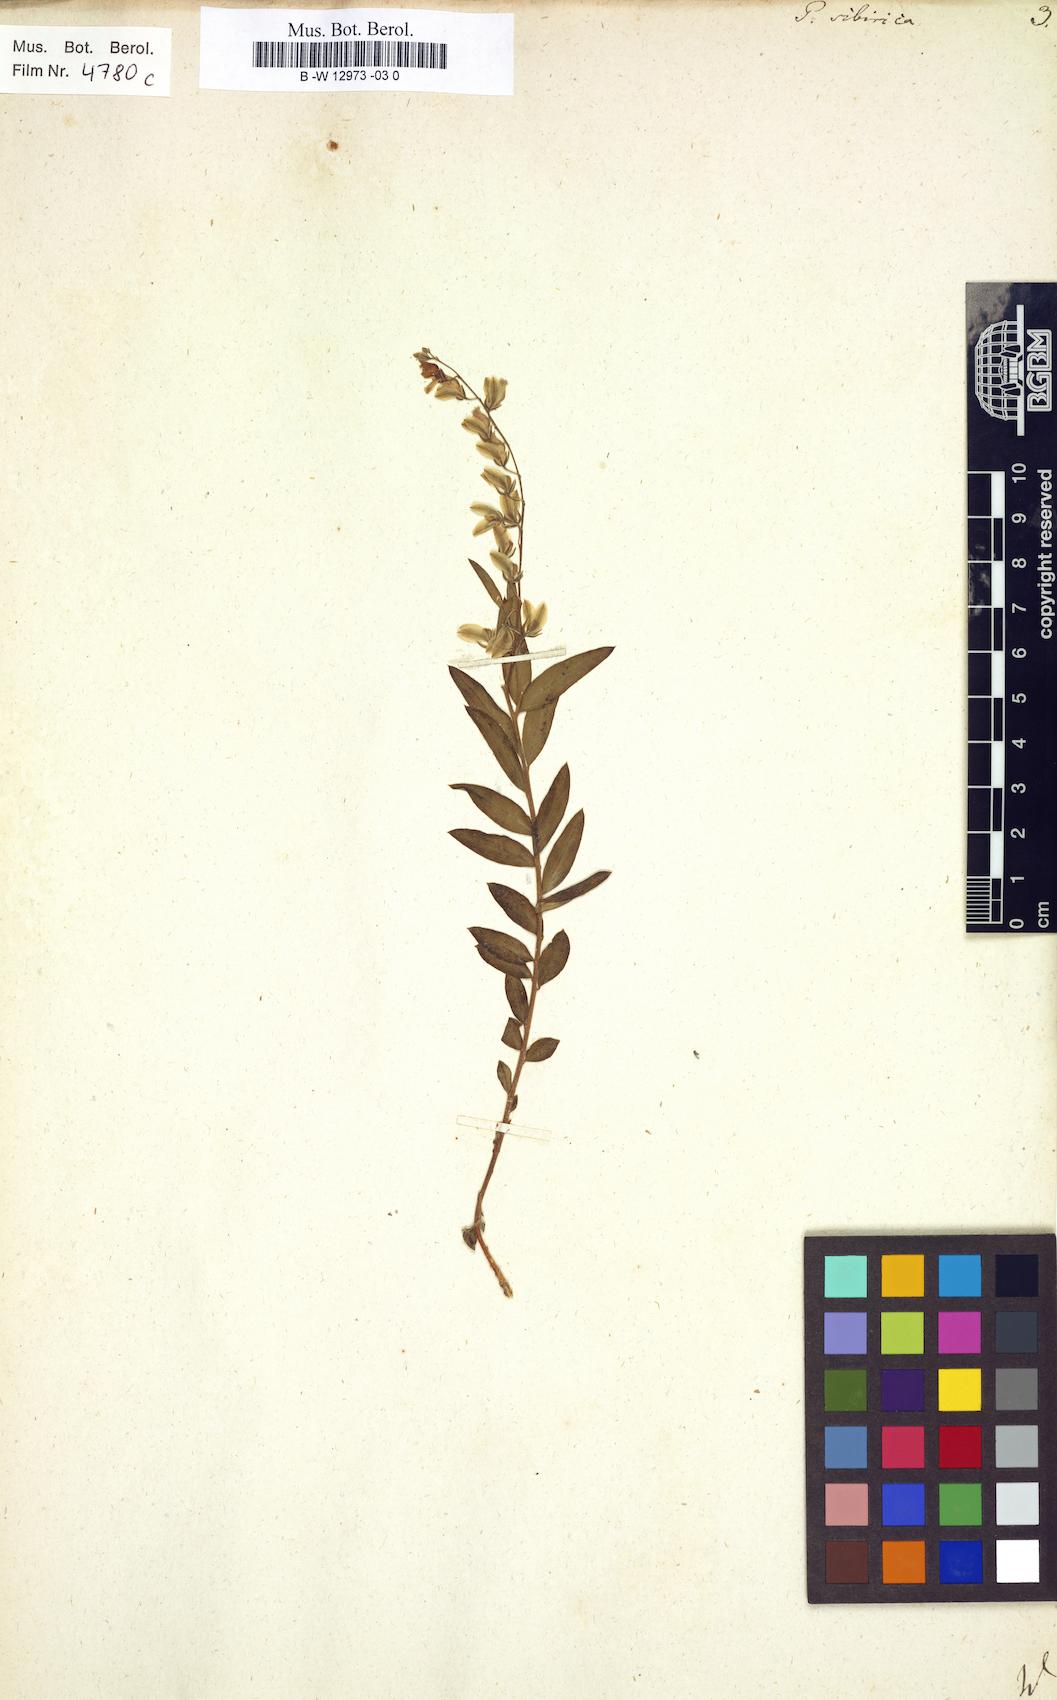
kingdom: Plantae
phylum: Tracheophyta
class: Magnoliopsida
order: Fabales
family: Polygalaceae
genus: Polygala
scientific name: Polygala sibirica
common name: Siberian polygala
